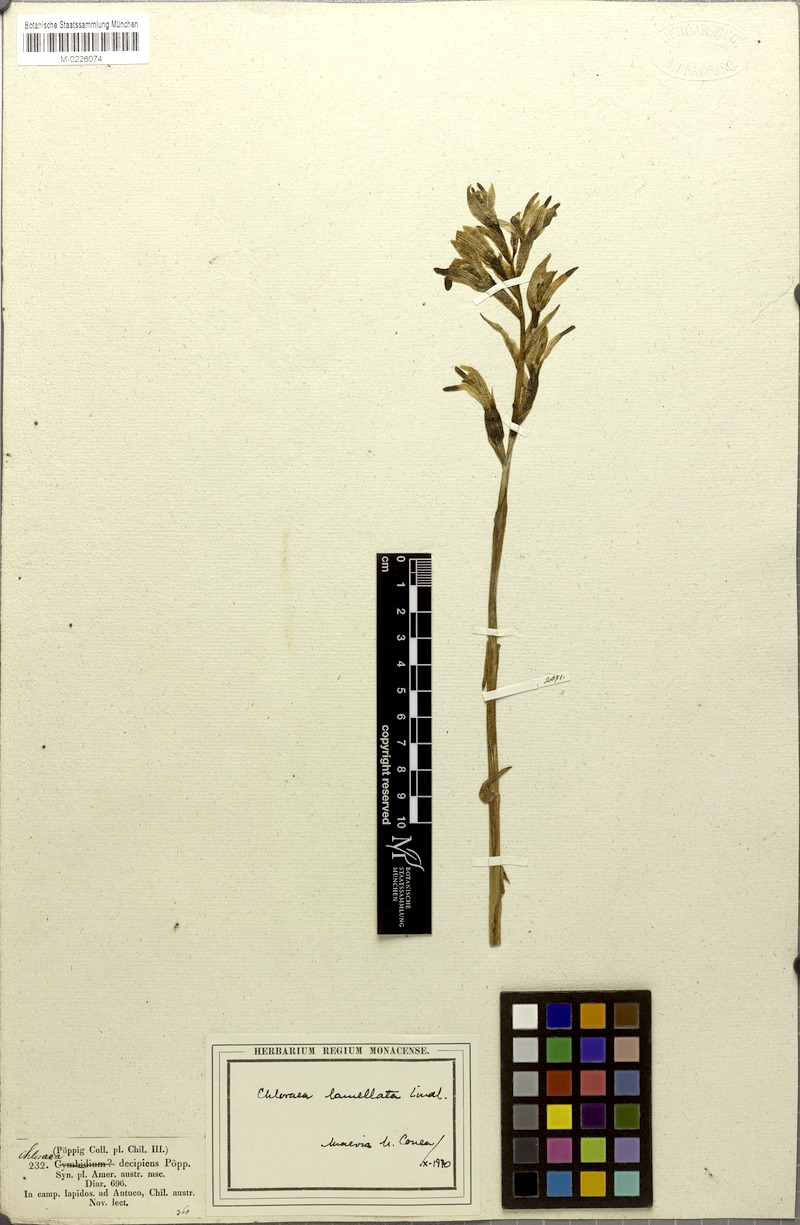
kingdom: Plantae
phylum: Tracheophyta
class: Liliopsida
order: Asparagales
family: Orchidaceae
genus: Chloraea
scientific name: Chloraea lamellata
